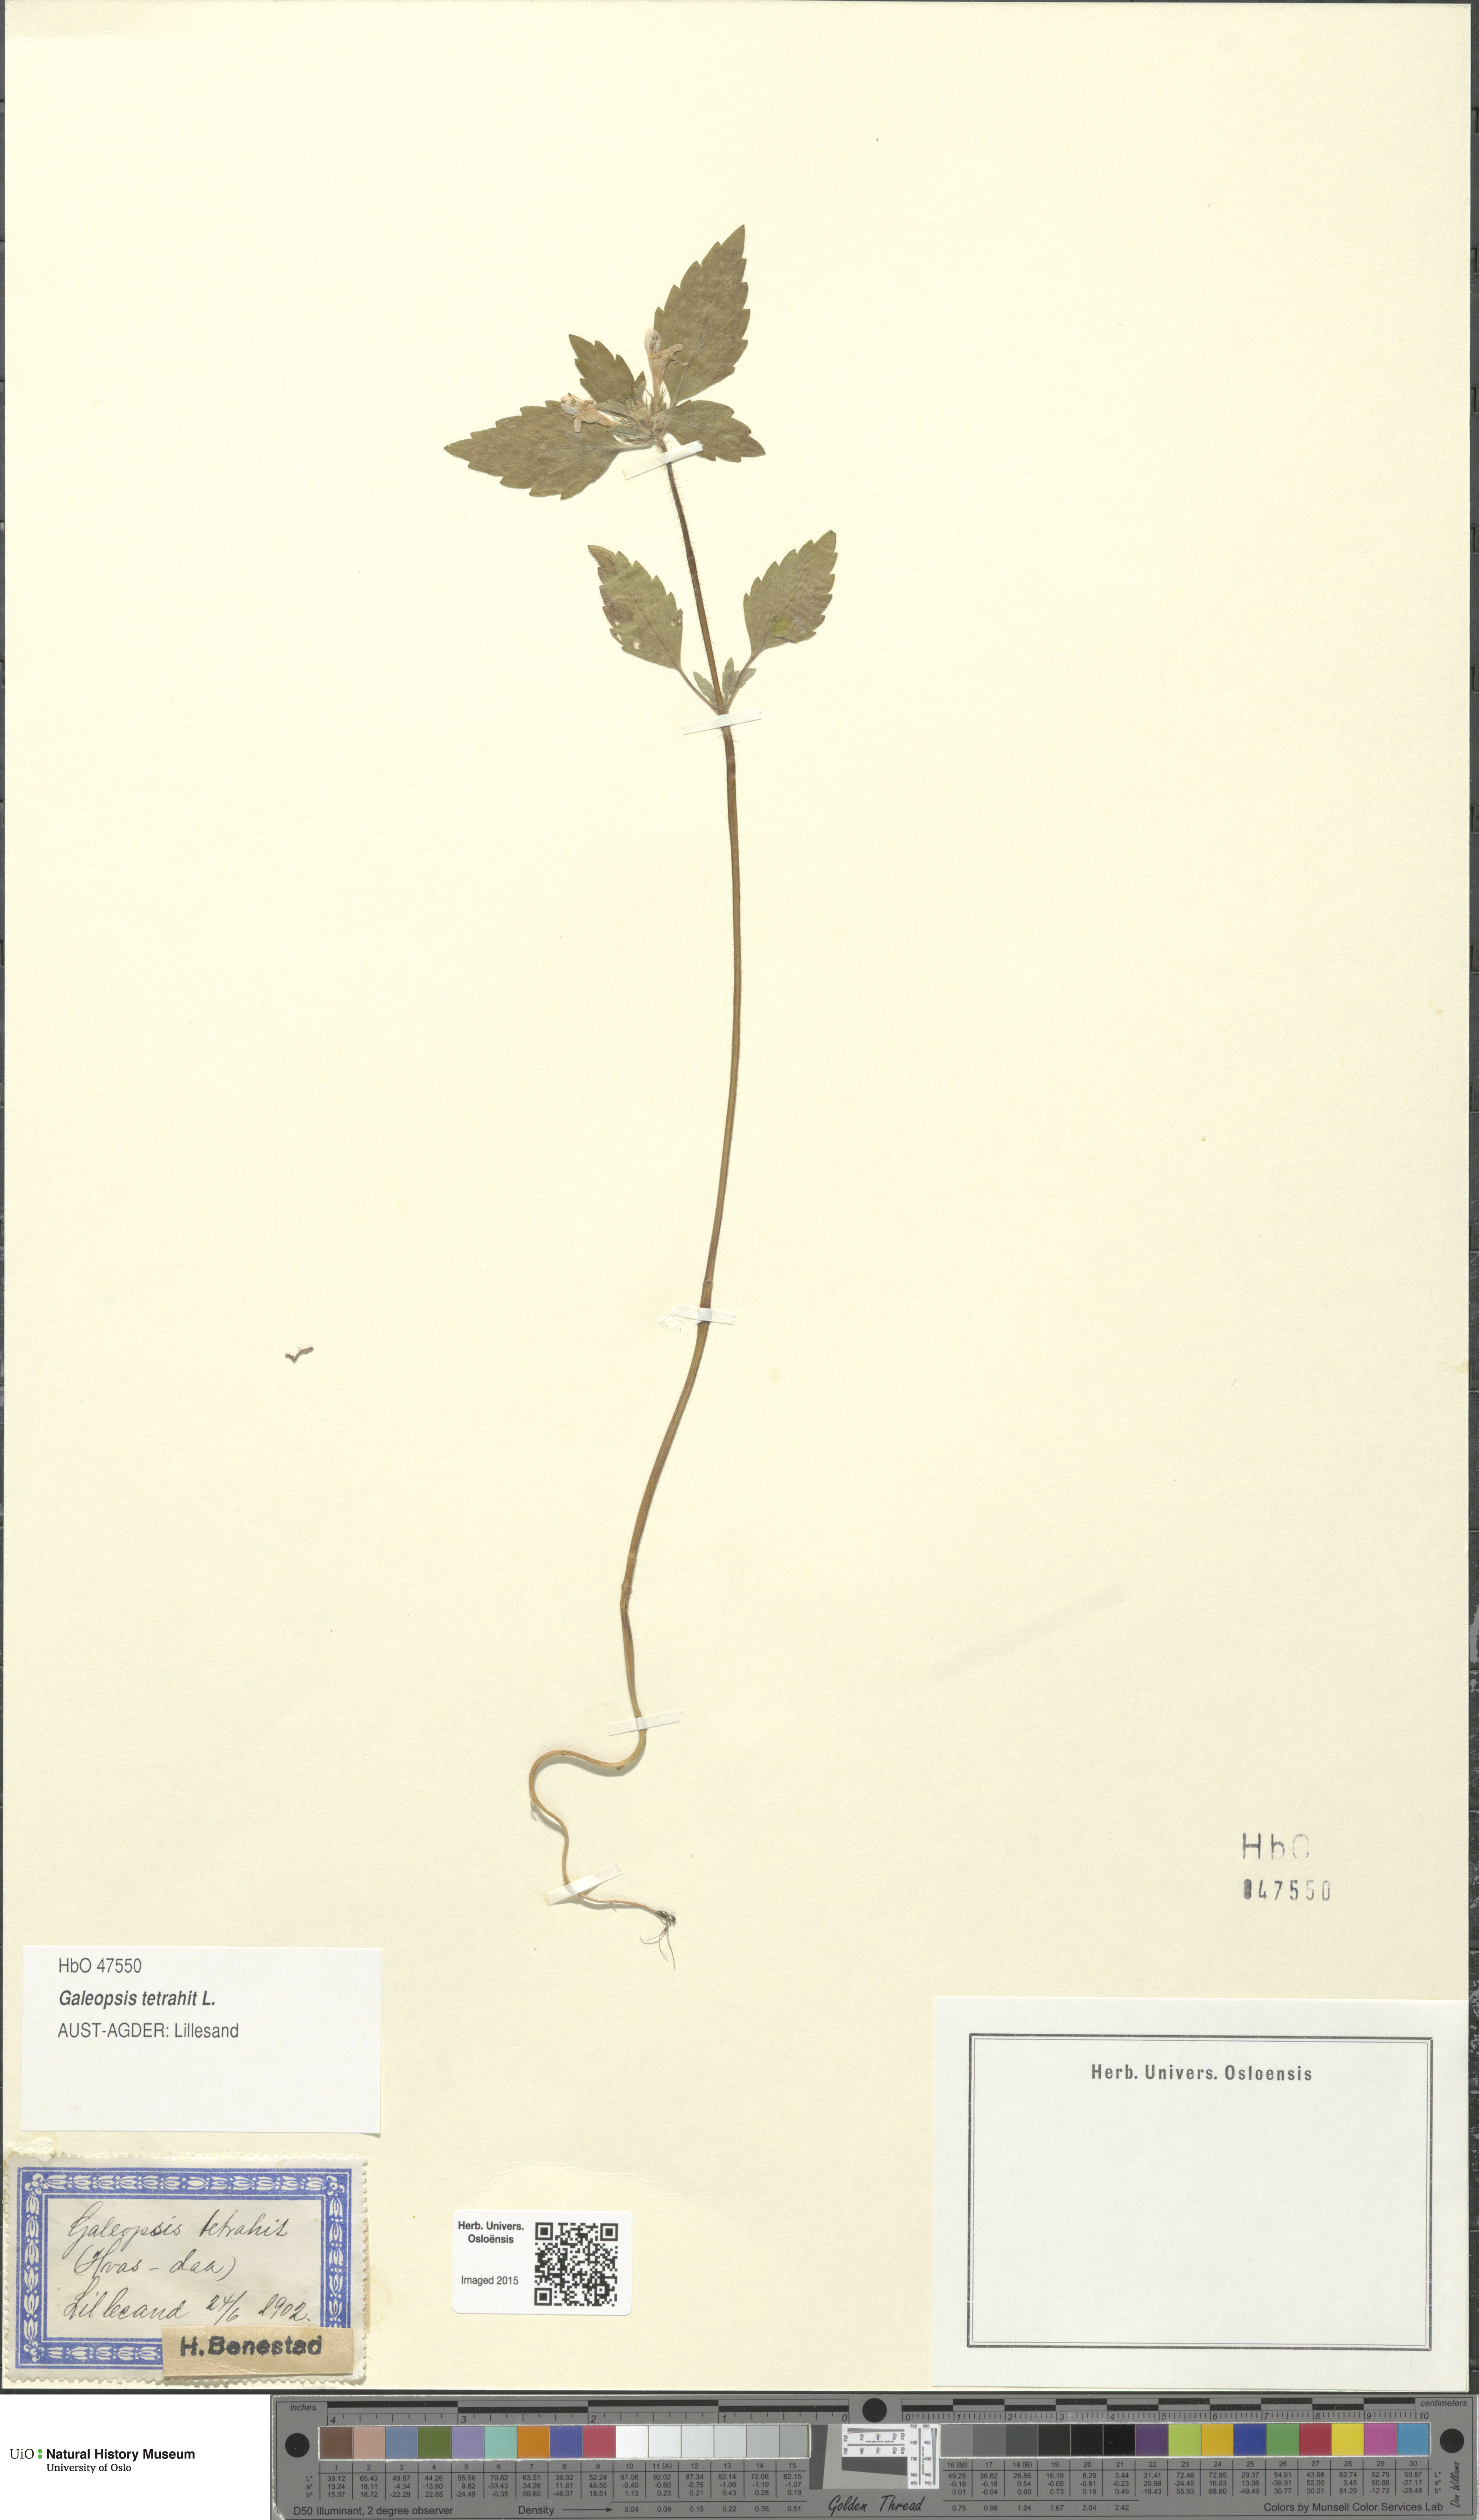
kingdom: Plantae
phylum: Tracheophyta
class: Magnoliopsida
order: Lamiales
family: Lamiaceae
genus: Galeopsis
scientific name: Galeopsis tetrahit
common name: Common hemp-nettle
